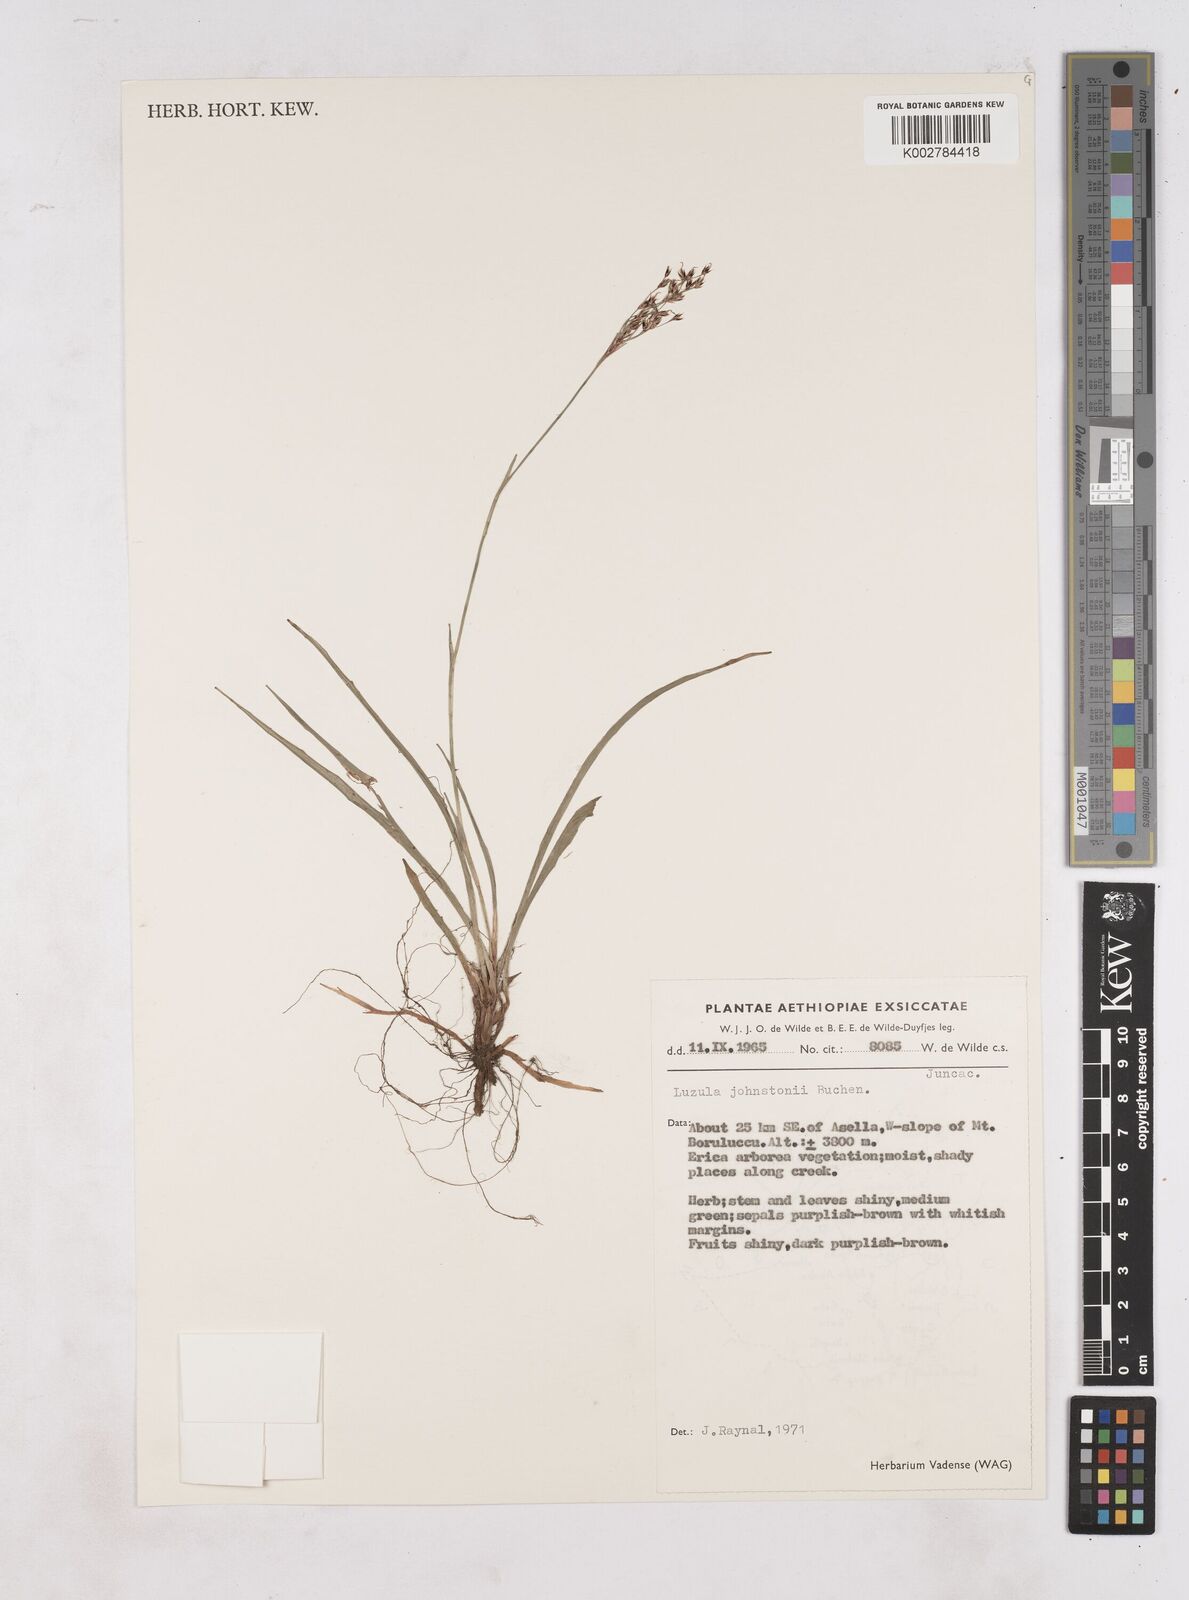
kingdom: Plantae
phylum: Tracheophyta
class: Liliopsida
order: Poales
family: Juncaceae
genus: Luzula
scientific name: Luzula johnstonii
